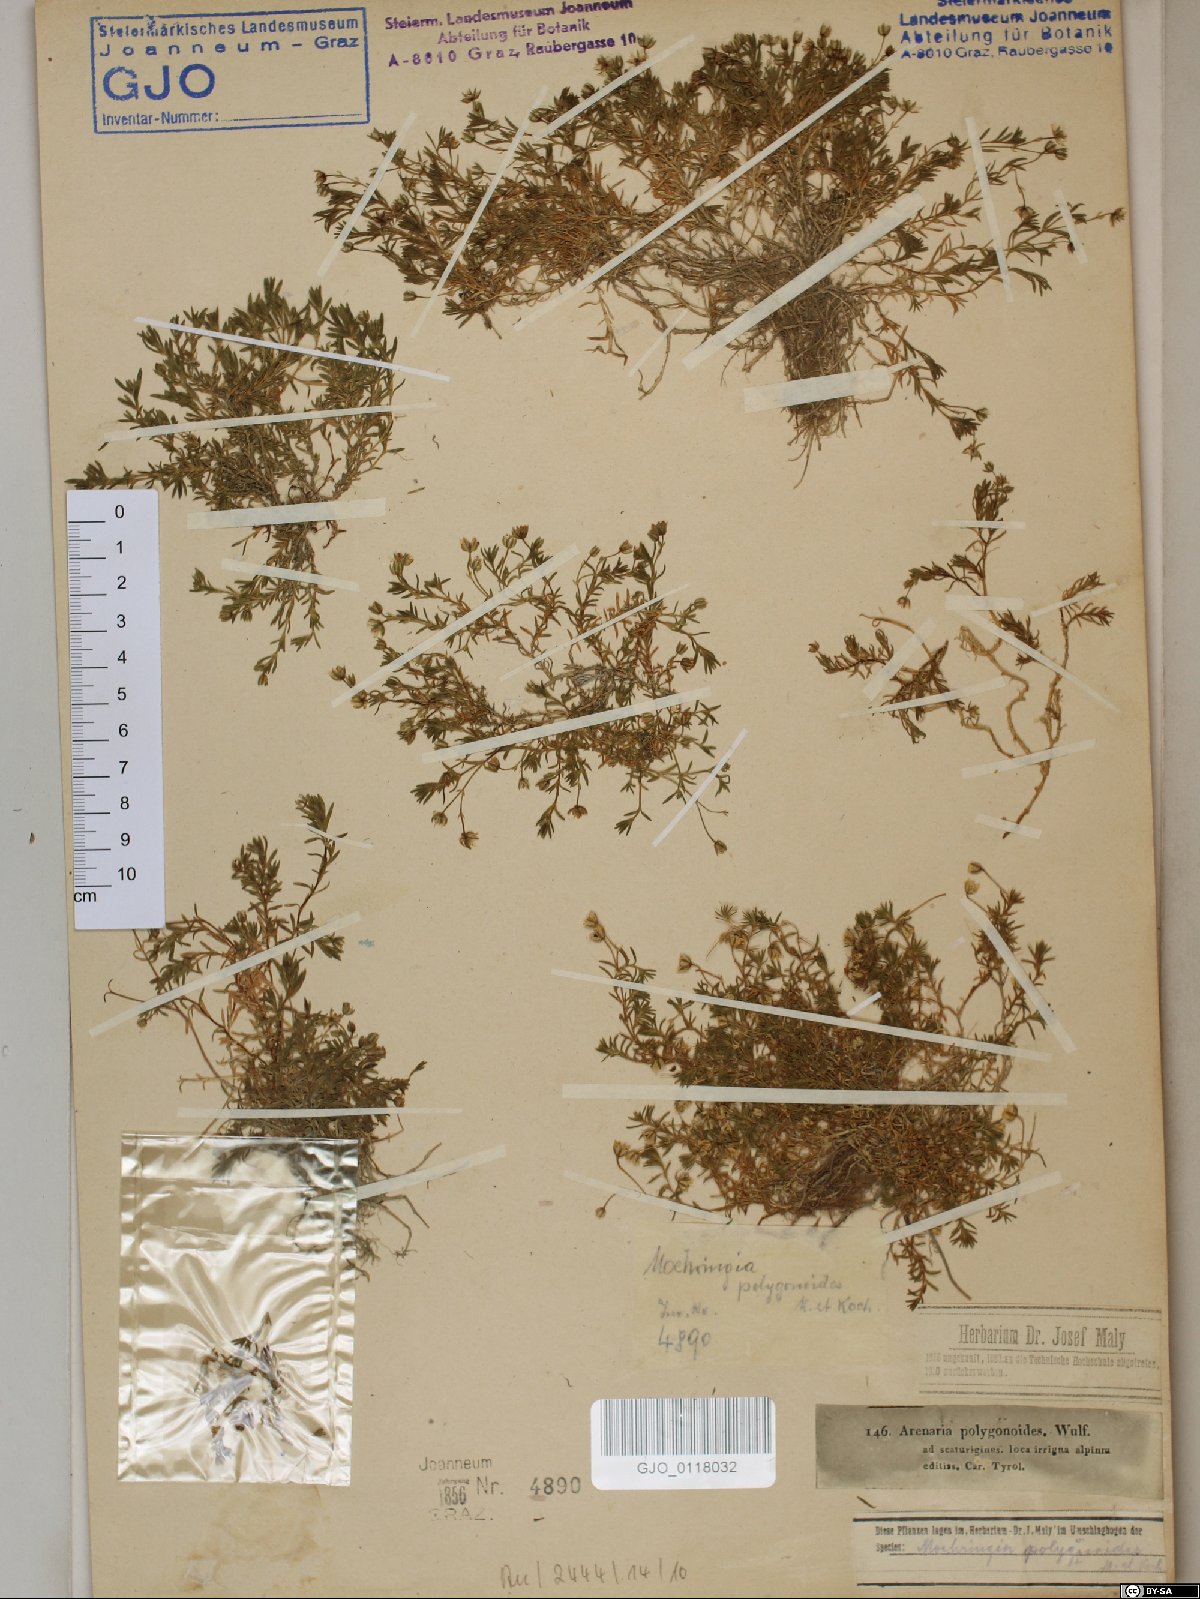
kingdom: Plantae
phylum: Tracheophyta
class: Magnoliopsida
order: Caryophyllales
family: Caryophyllaceae
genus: Moehringia
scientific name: Moehringia ciliata
